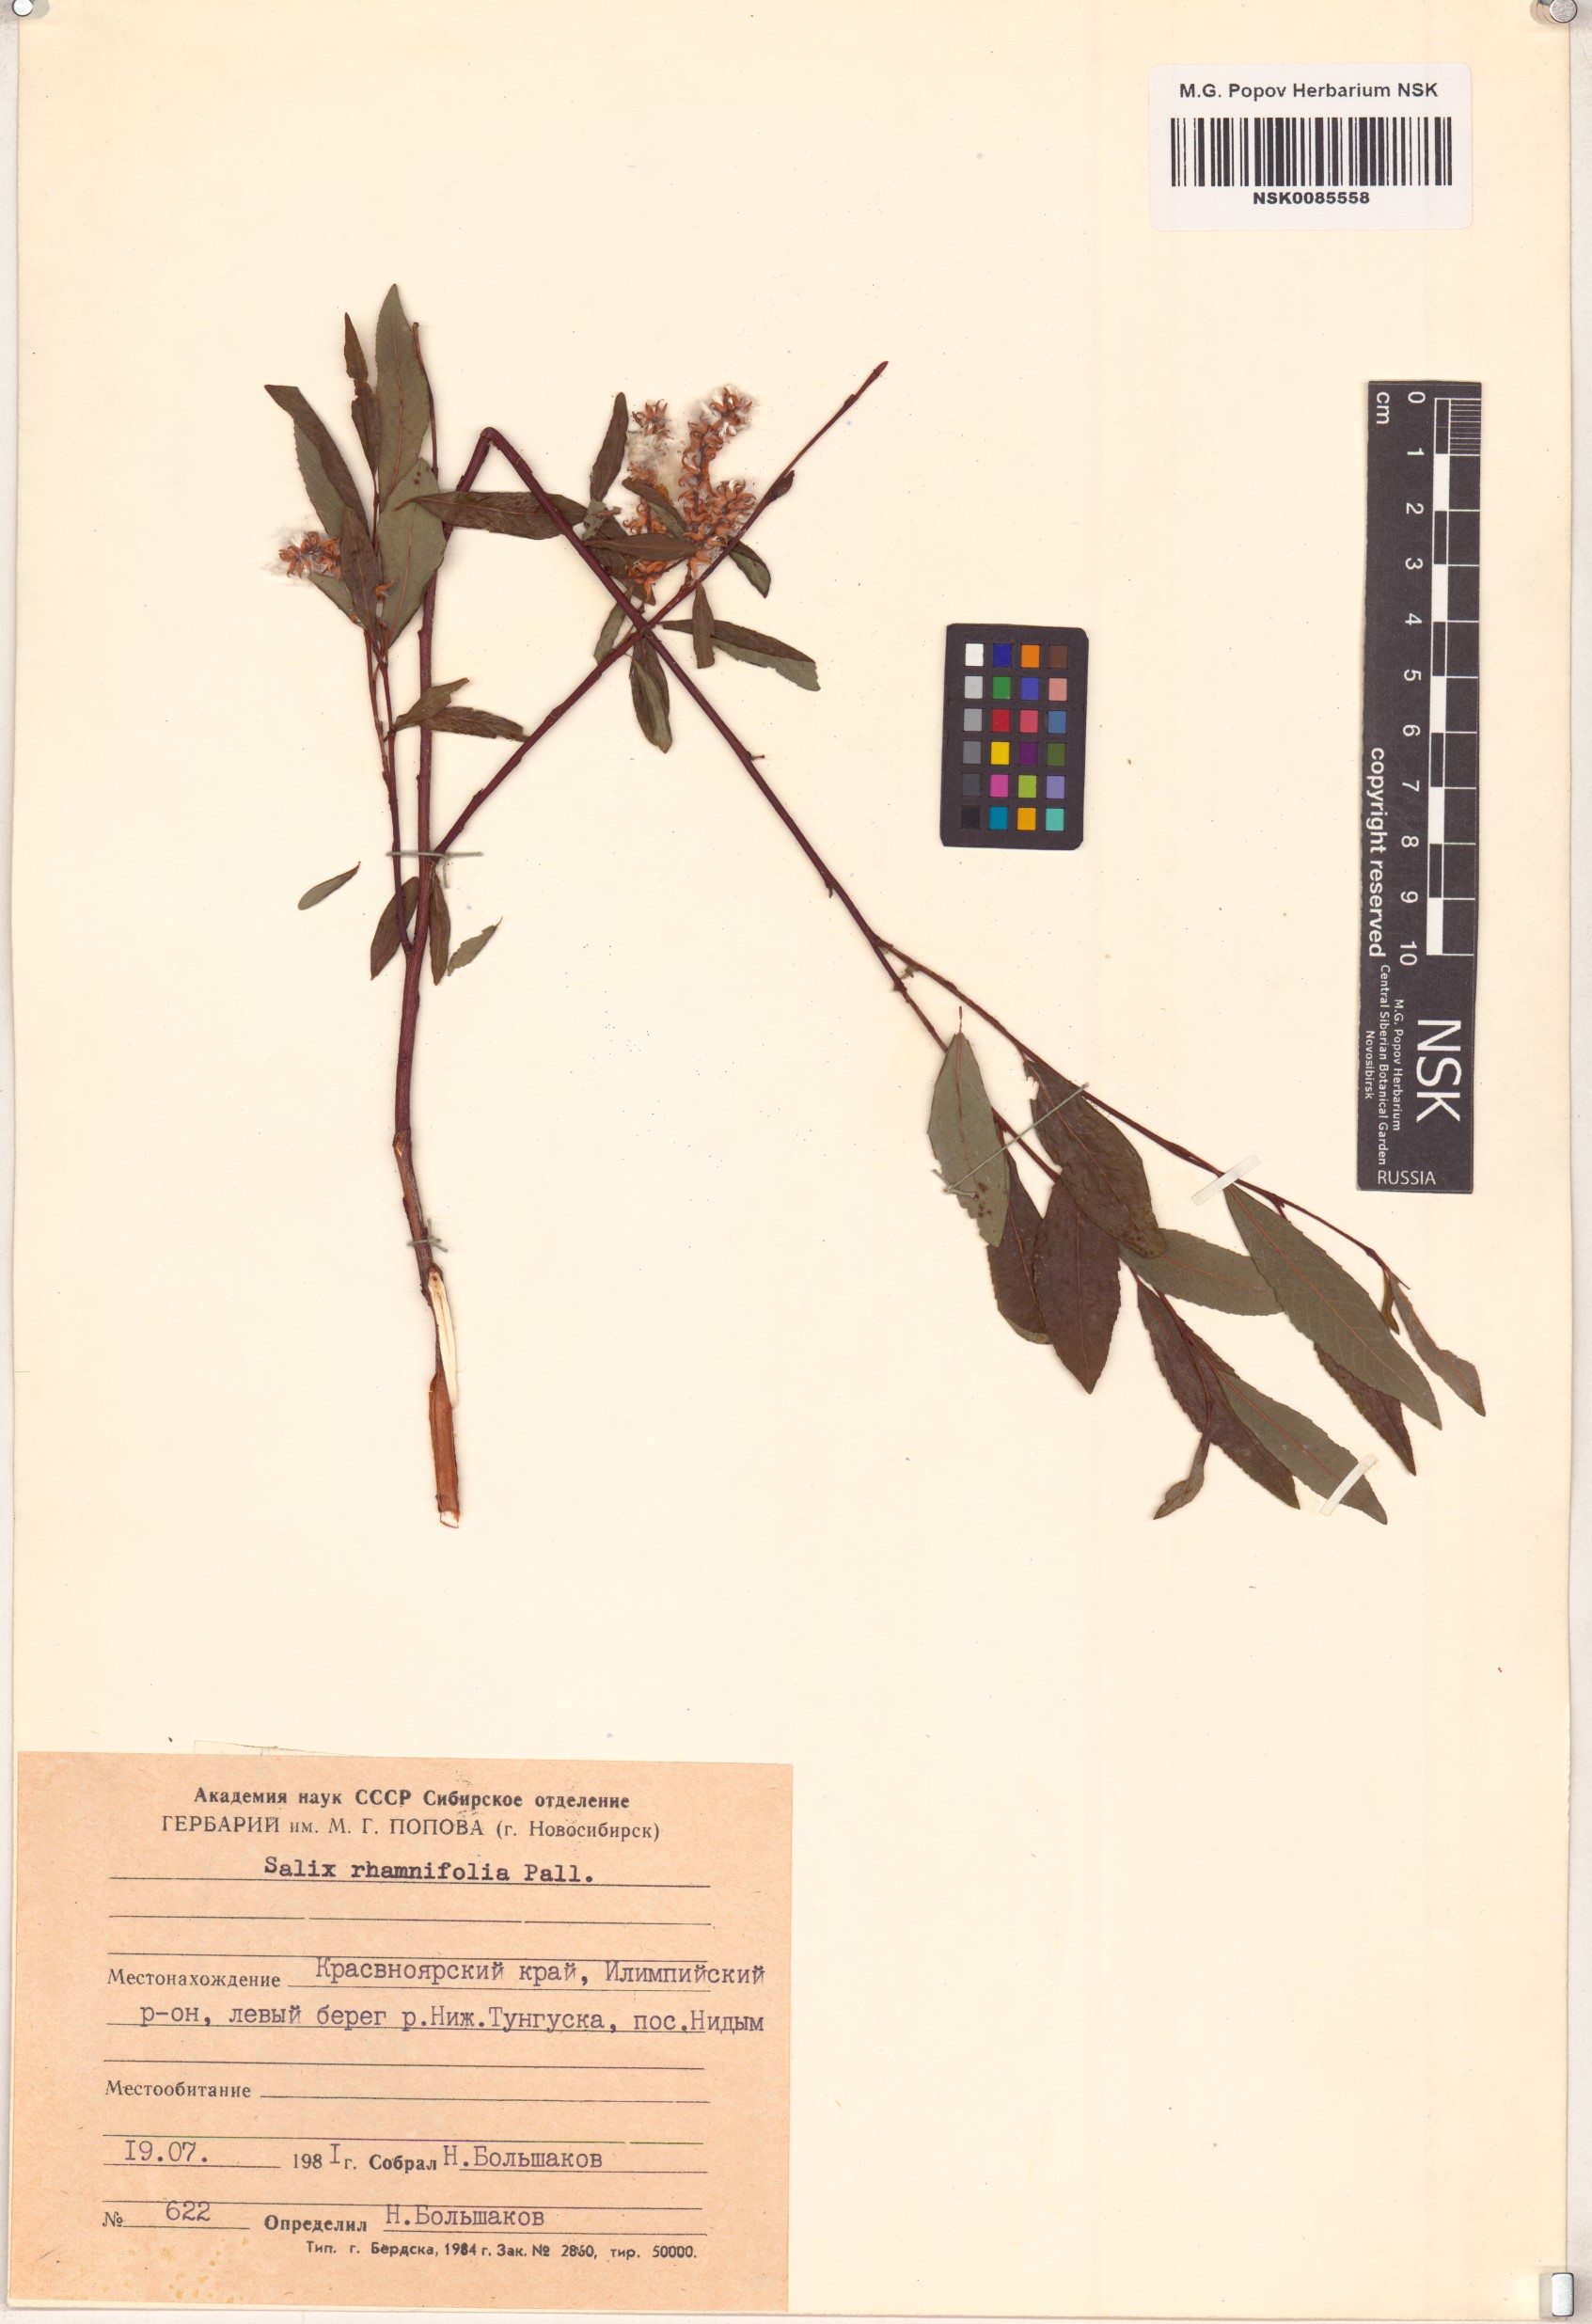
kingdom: Plantae
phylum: Tracheophyta
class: Magnoliopsida
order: Malpighiales
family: Salicaceae
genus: Salix
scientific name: Salix rhamnifolia
